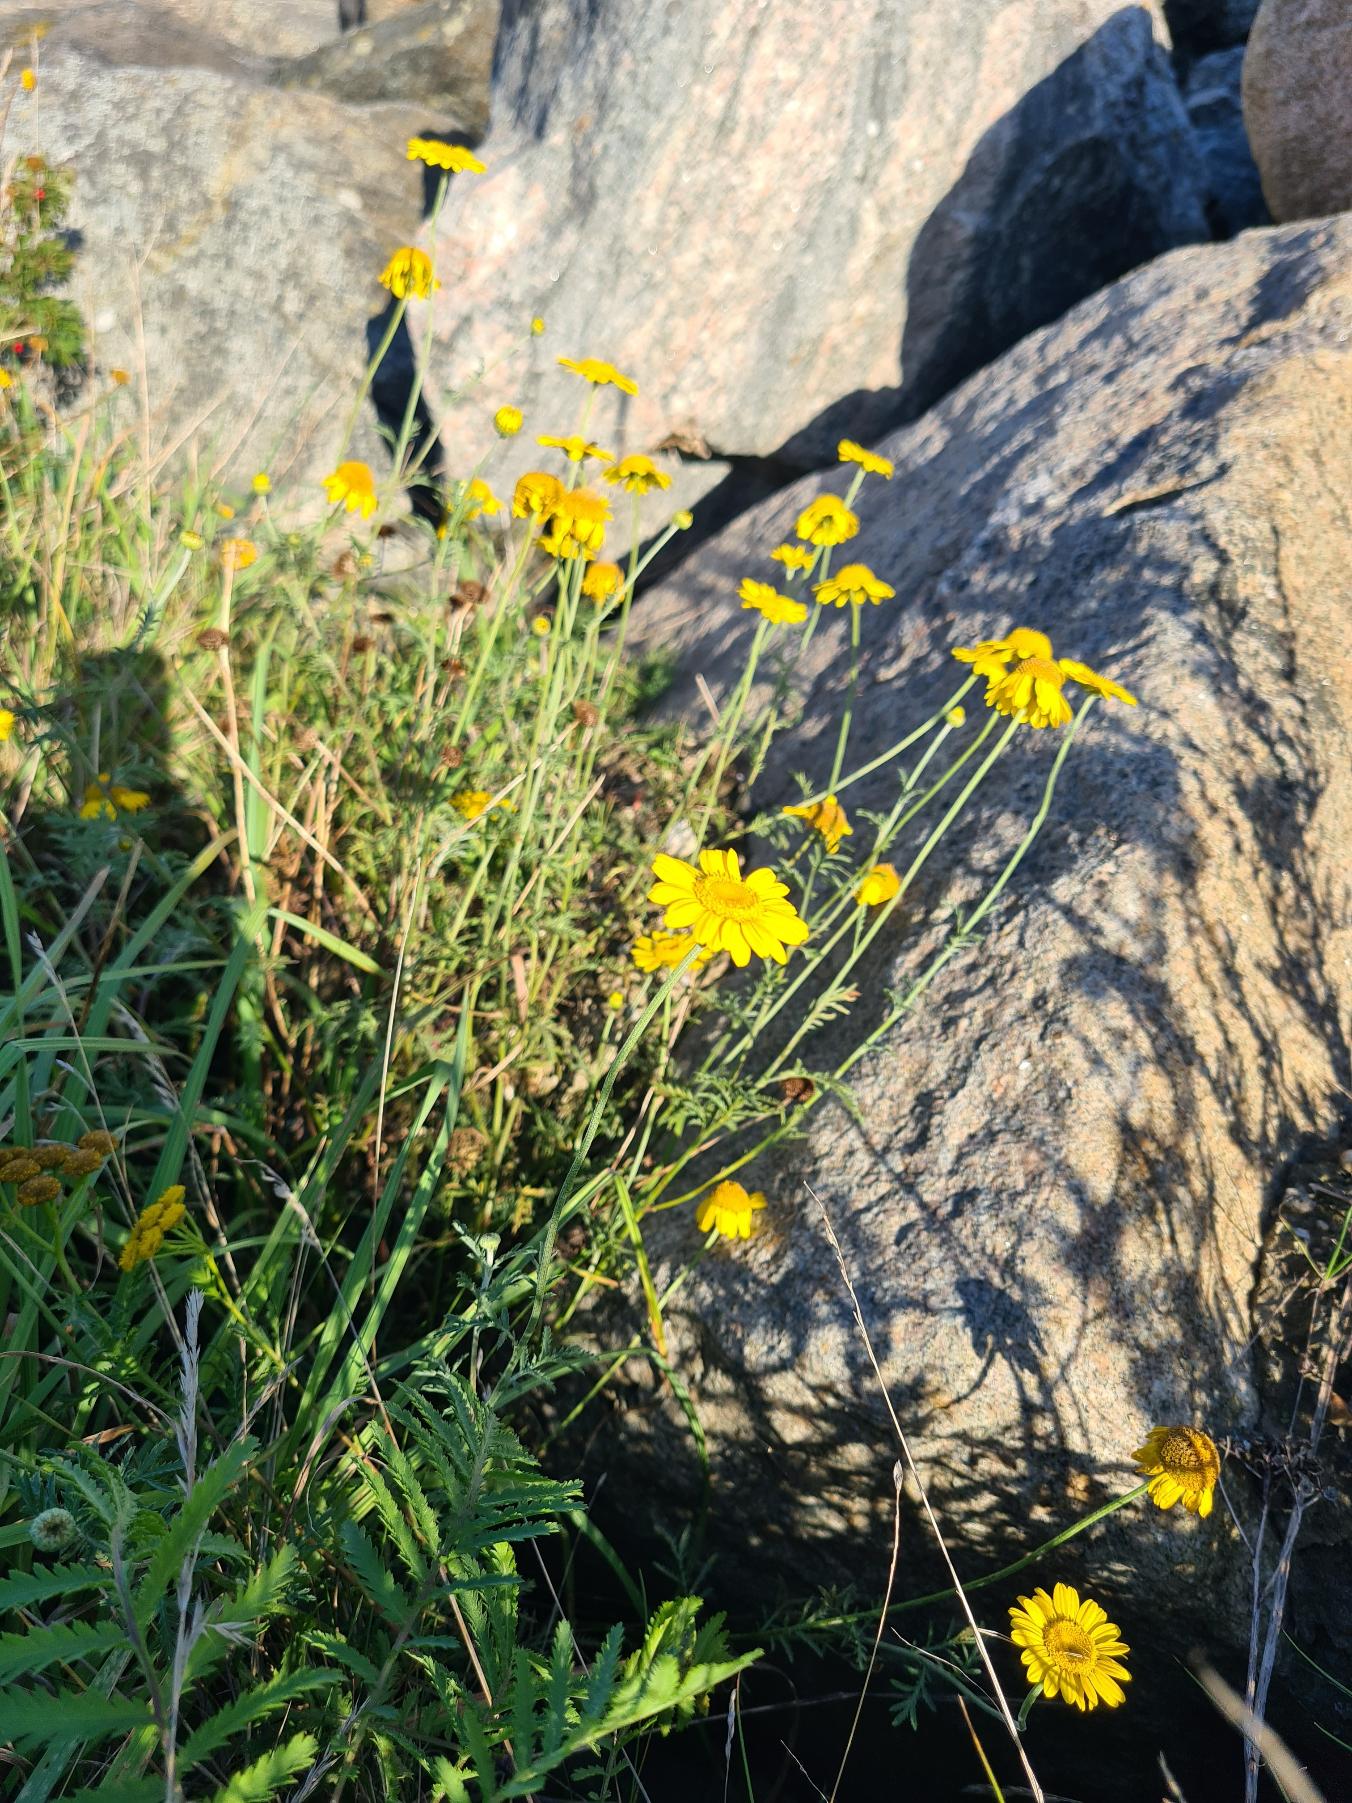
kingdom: Plantae
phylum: Tracheophyta
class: Magnoliopsida
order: Asterales
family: Asteraceae
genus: Cota
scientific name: Cota tinctoria
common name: Farve-gåseurt
